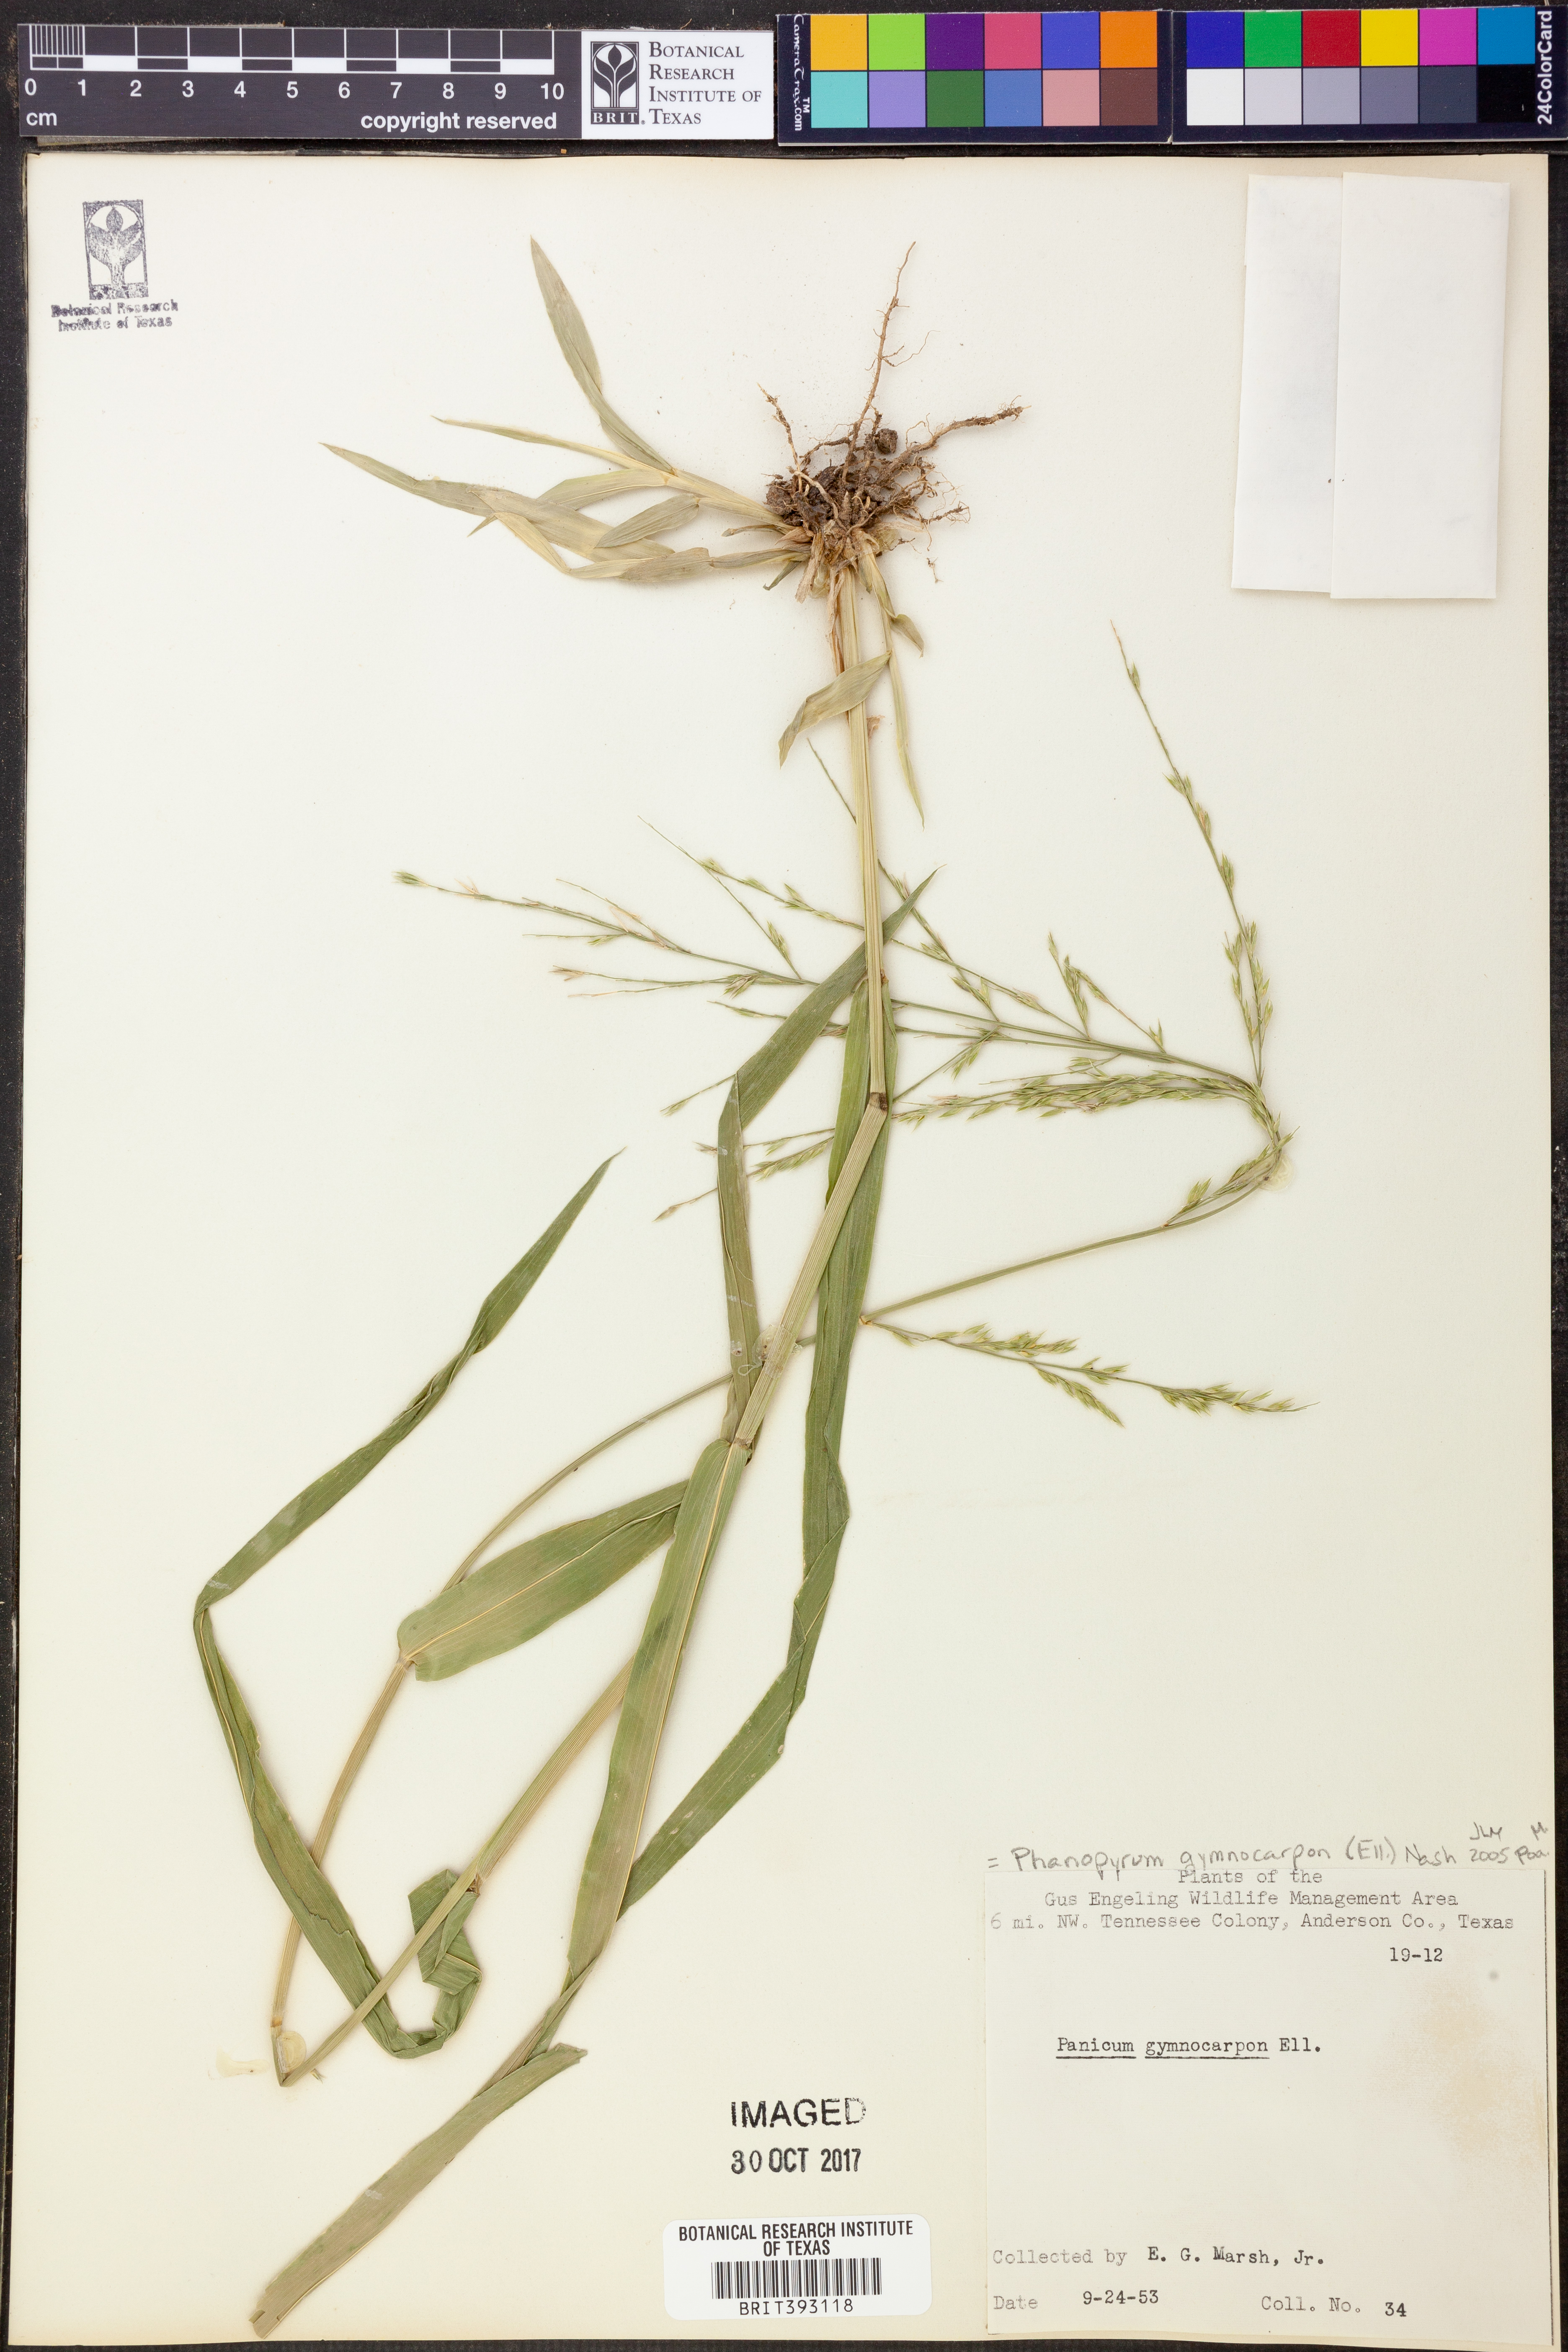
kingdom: Plantae
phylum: Tracheophyta
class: Liliopsida
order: Poales
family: Poaceae
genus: Panicum
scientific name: Panicum gymnocarpon
